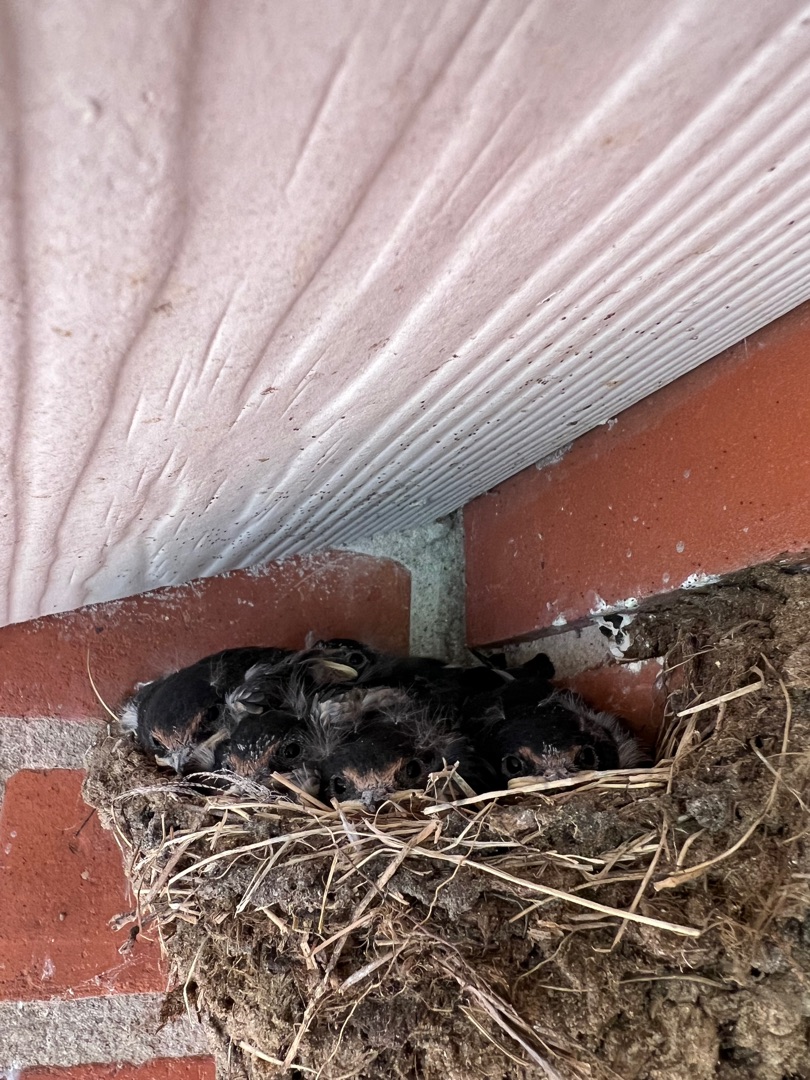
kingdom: Animalia
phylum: Chordata
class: Aves
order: Passeriformes
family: Hirundinidae
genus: Hirundo
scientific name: Hirundo rustica
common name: Landsvale
